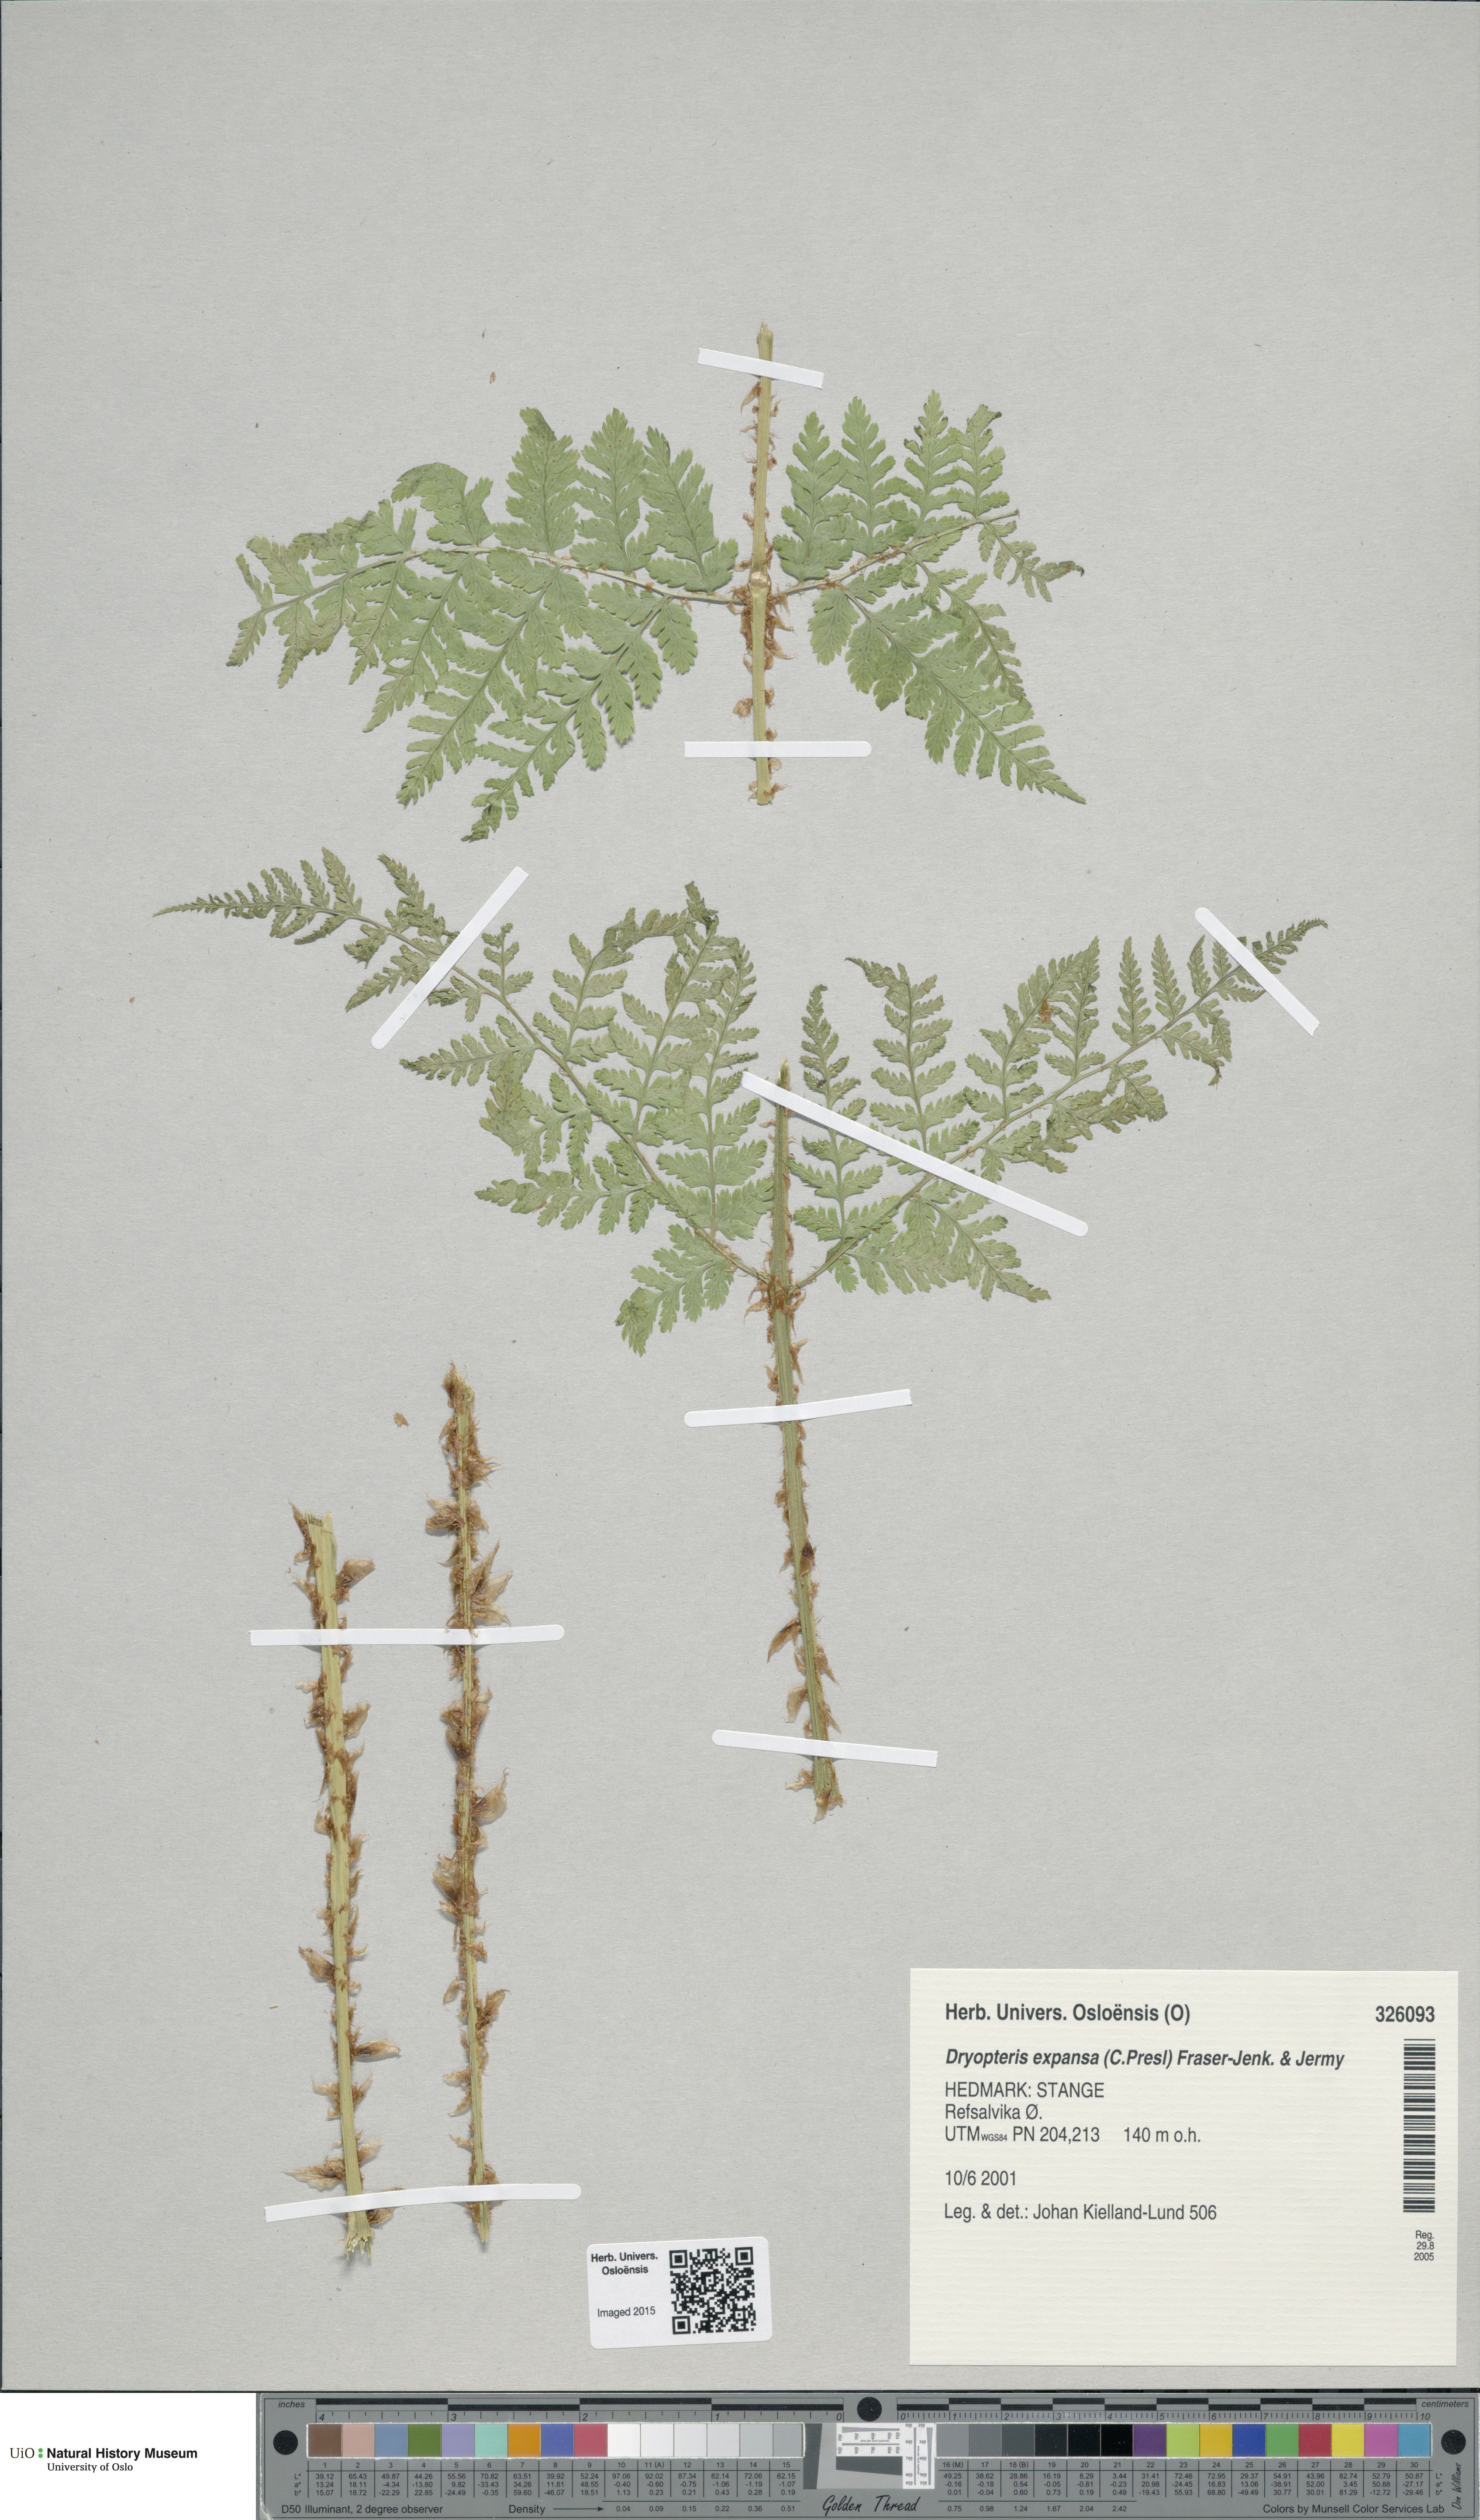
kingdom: Plantae
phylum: Tracheophyta
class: Polypodiopsida
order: Polypodiales
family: Dryopteridaceae
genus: Dryopteris
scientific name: Dryopteris expansa
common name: Northern buckler fern
